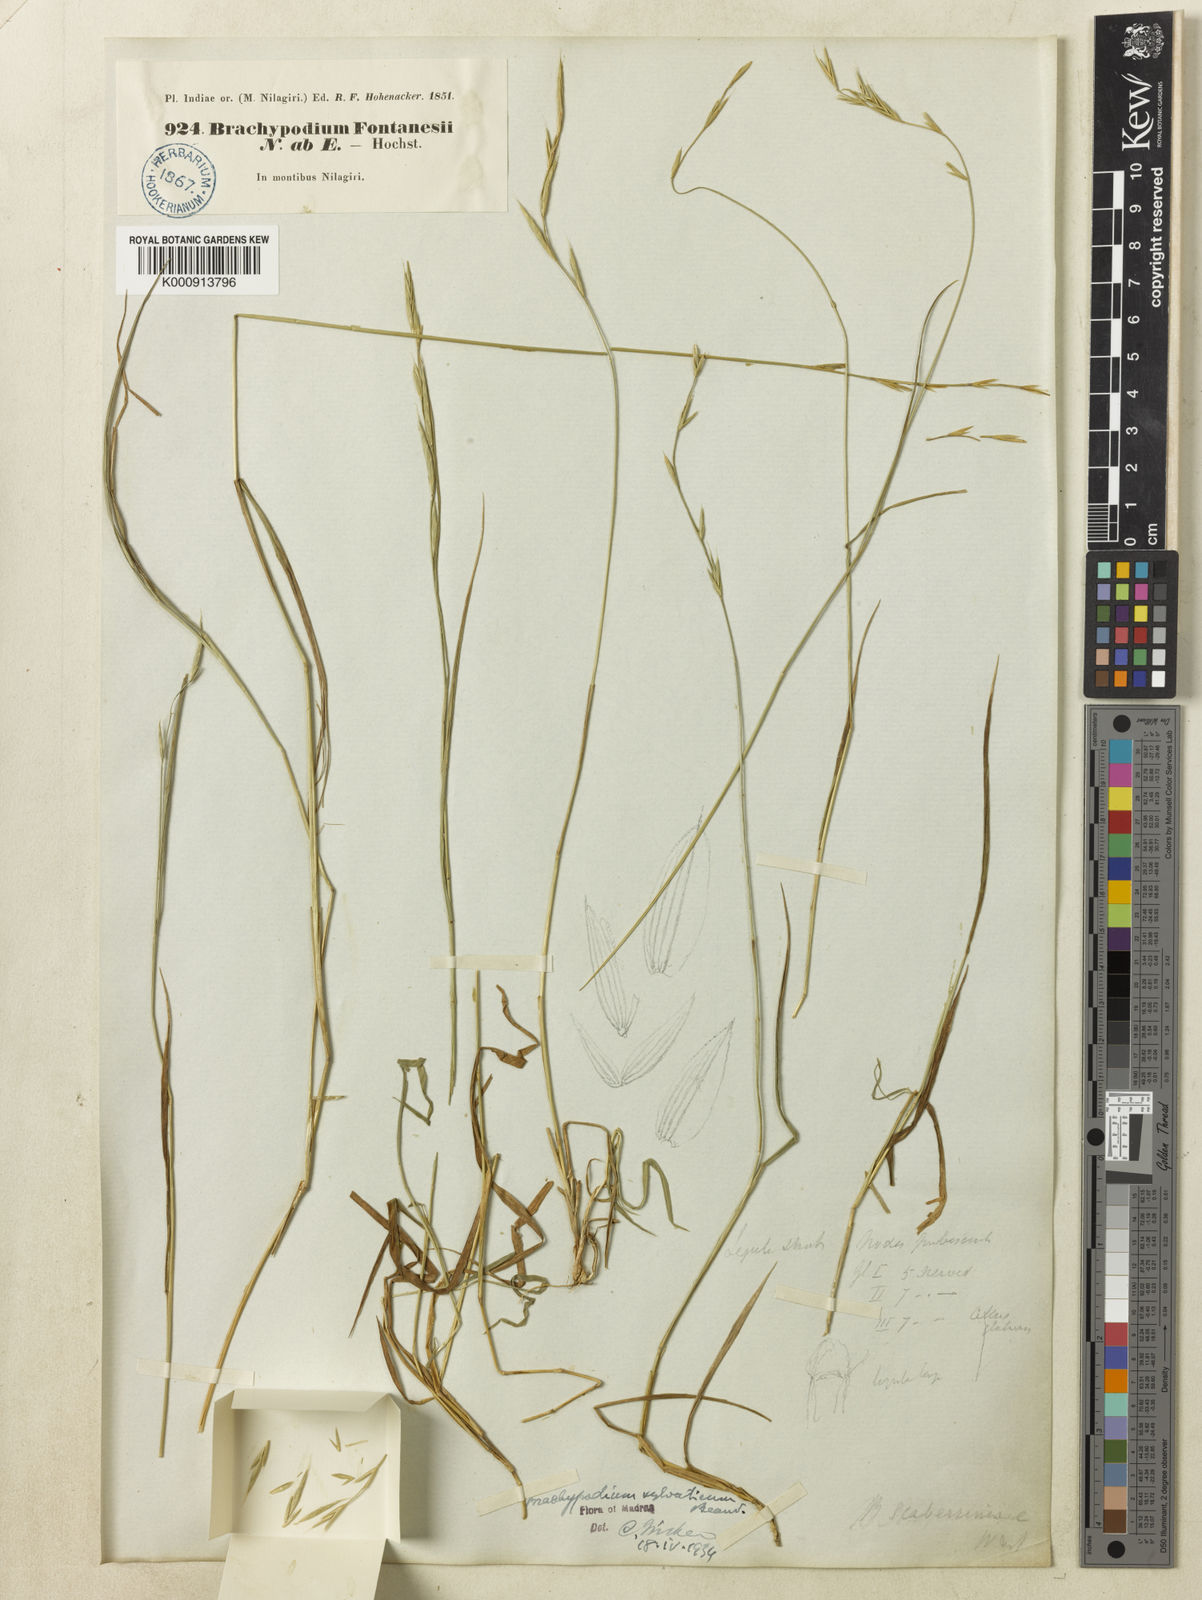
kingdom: Plantae
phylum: Tracheophyta
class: Liliopsida
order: Poales
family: Poaceae
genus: Brachypodium
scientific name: Brachypodium sylvaticum
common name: False-brome
